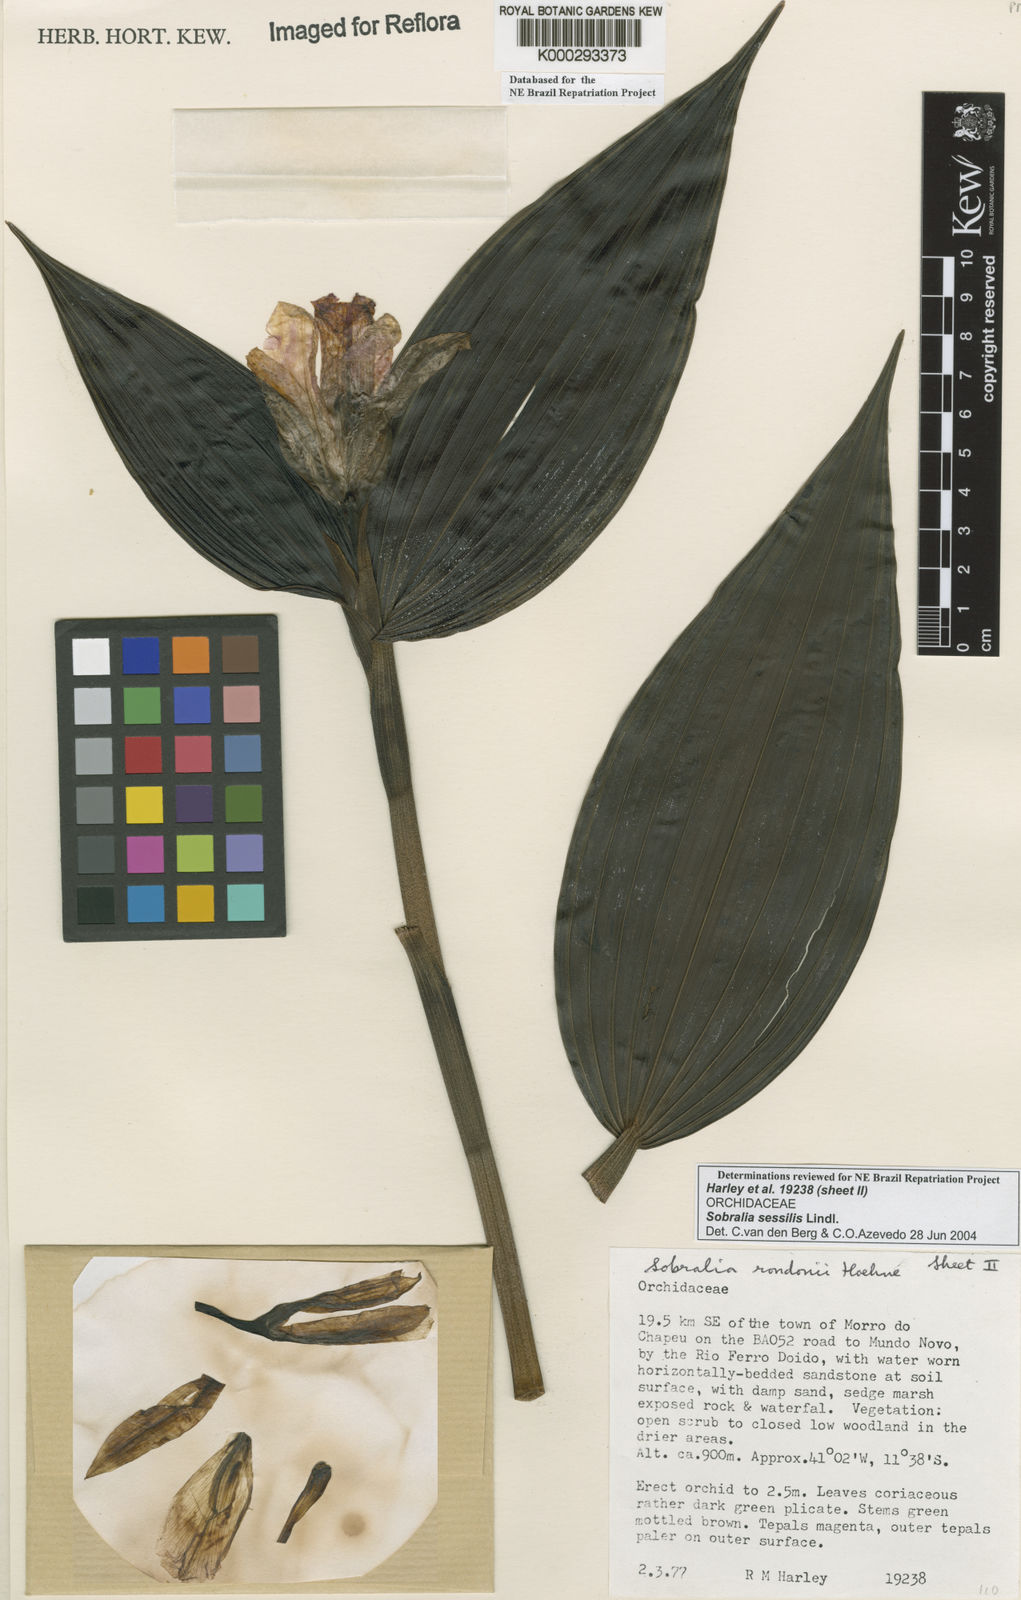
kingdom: Plantae
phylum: Tracheophyta
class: Liliopsida
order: Asparagales
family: Orchidaceae
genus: Sobralia
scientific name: Sobralia sessilis
